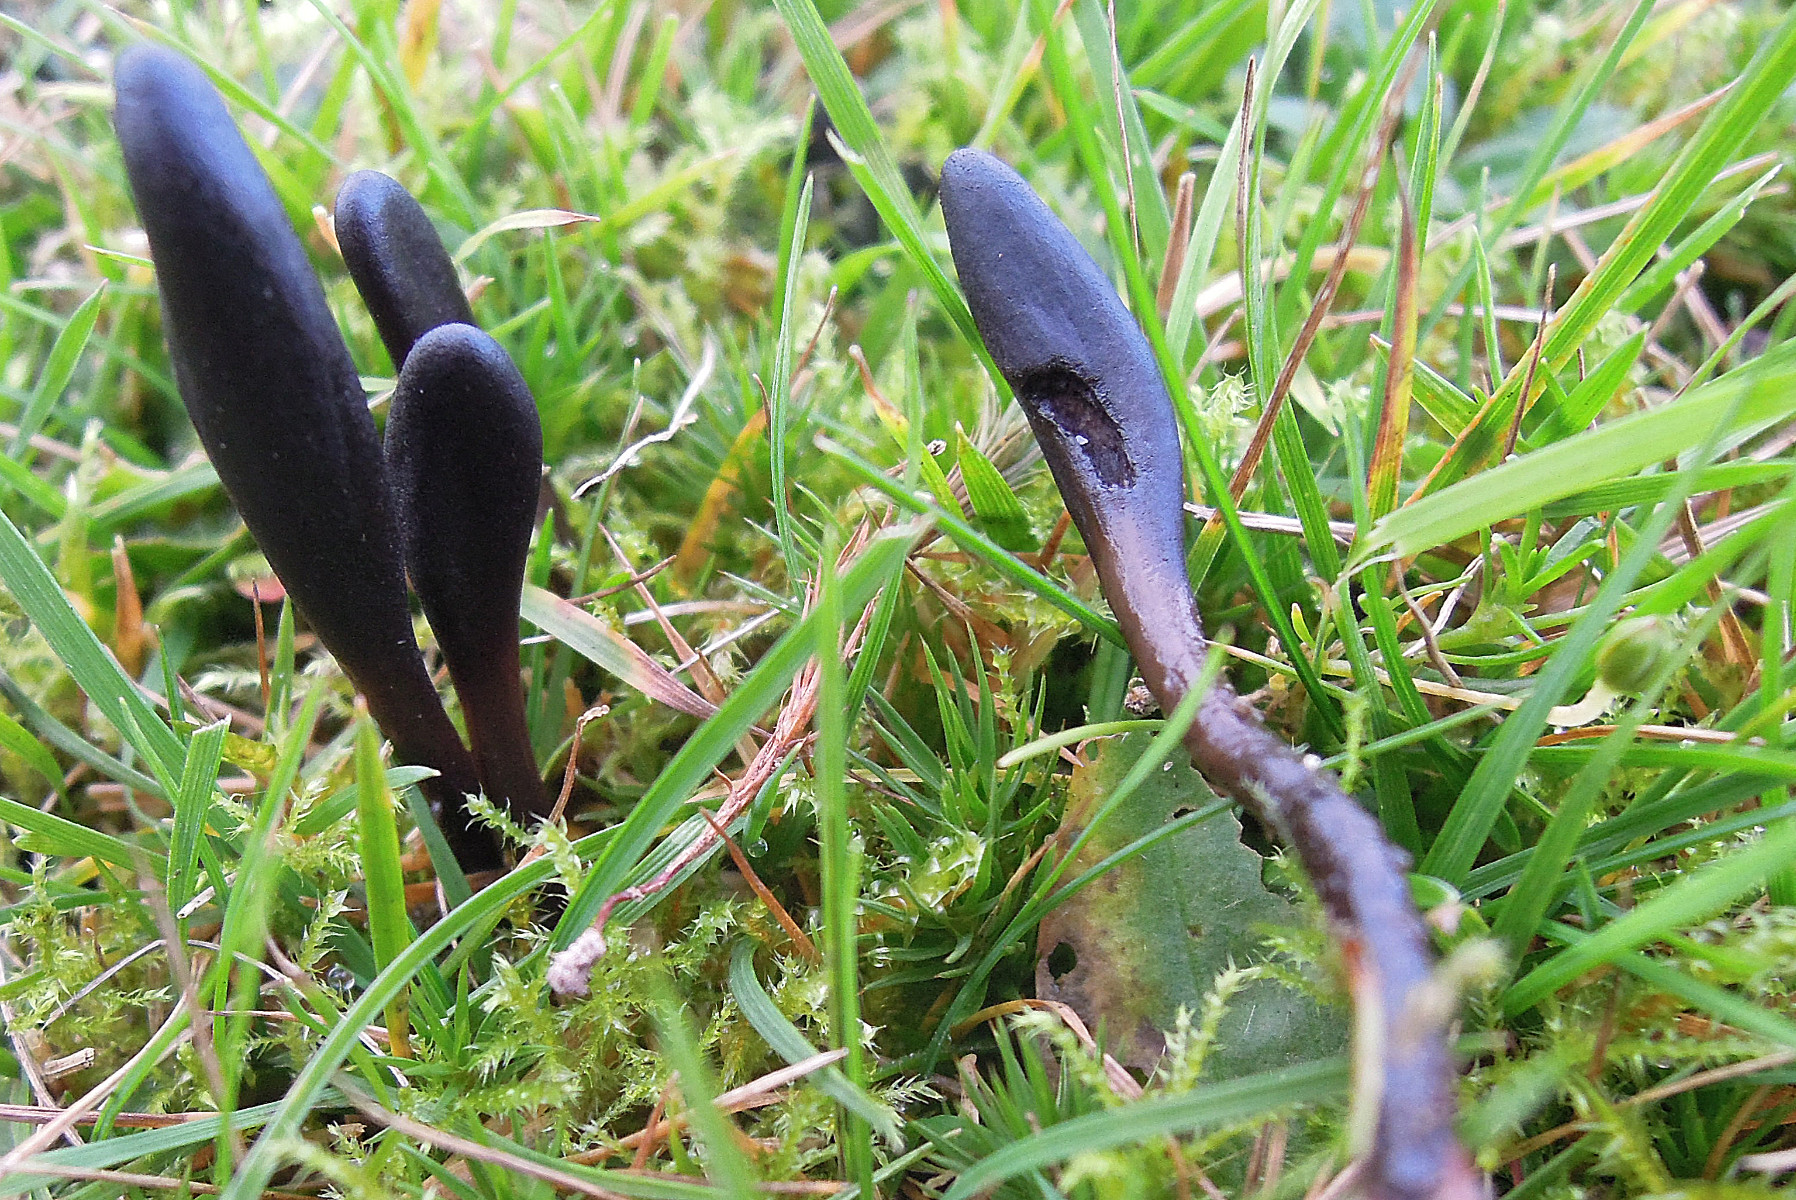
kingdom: Fungi
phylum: Ascomycota
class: Geoglossomycetes
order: Geoglossales
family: Geoglossaceae
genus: Glutinoglossum
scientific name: Glutinoglossum glutinosum
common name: slimet jordtunge
